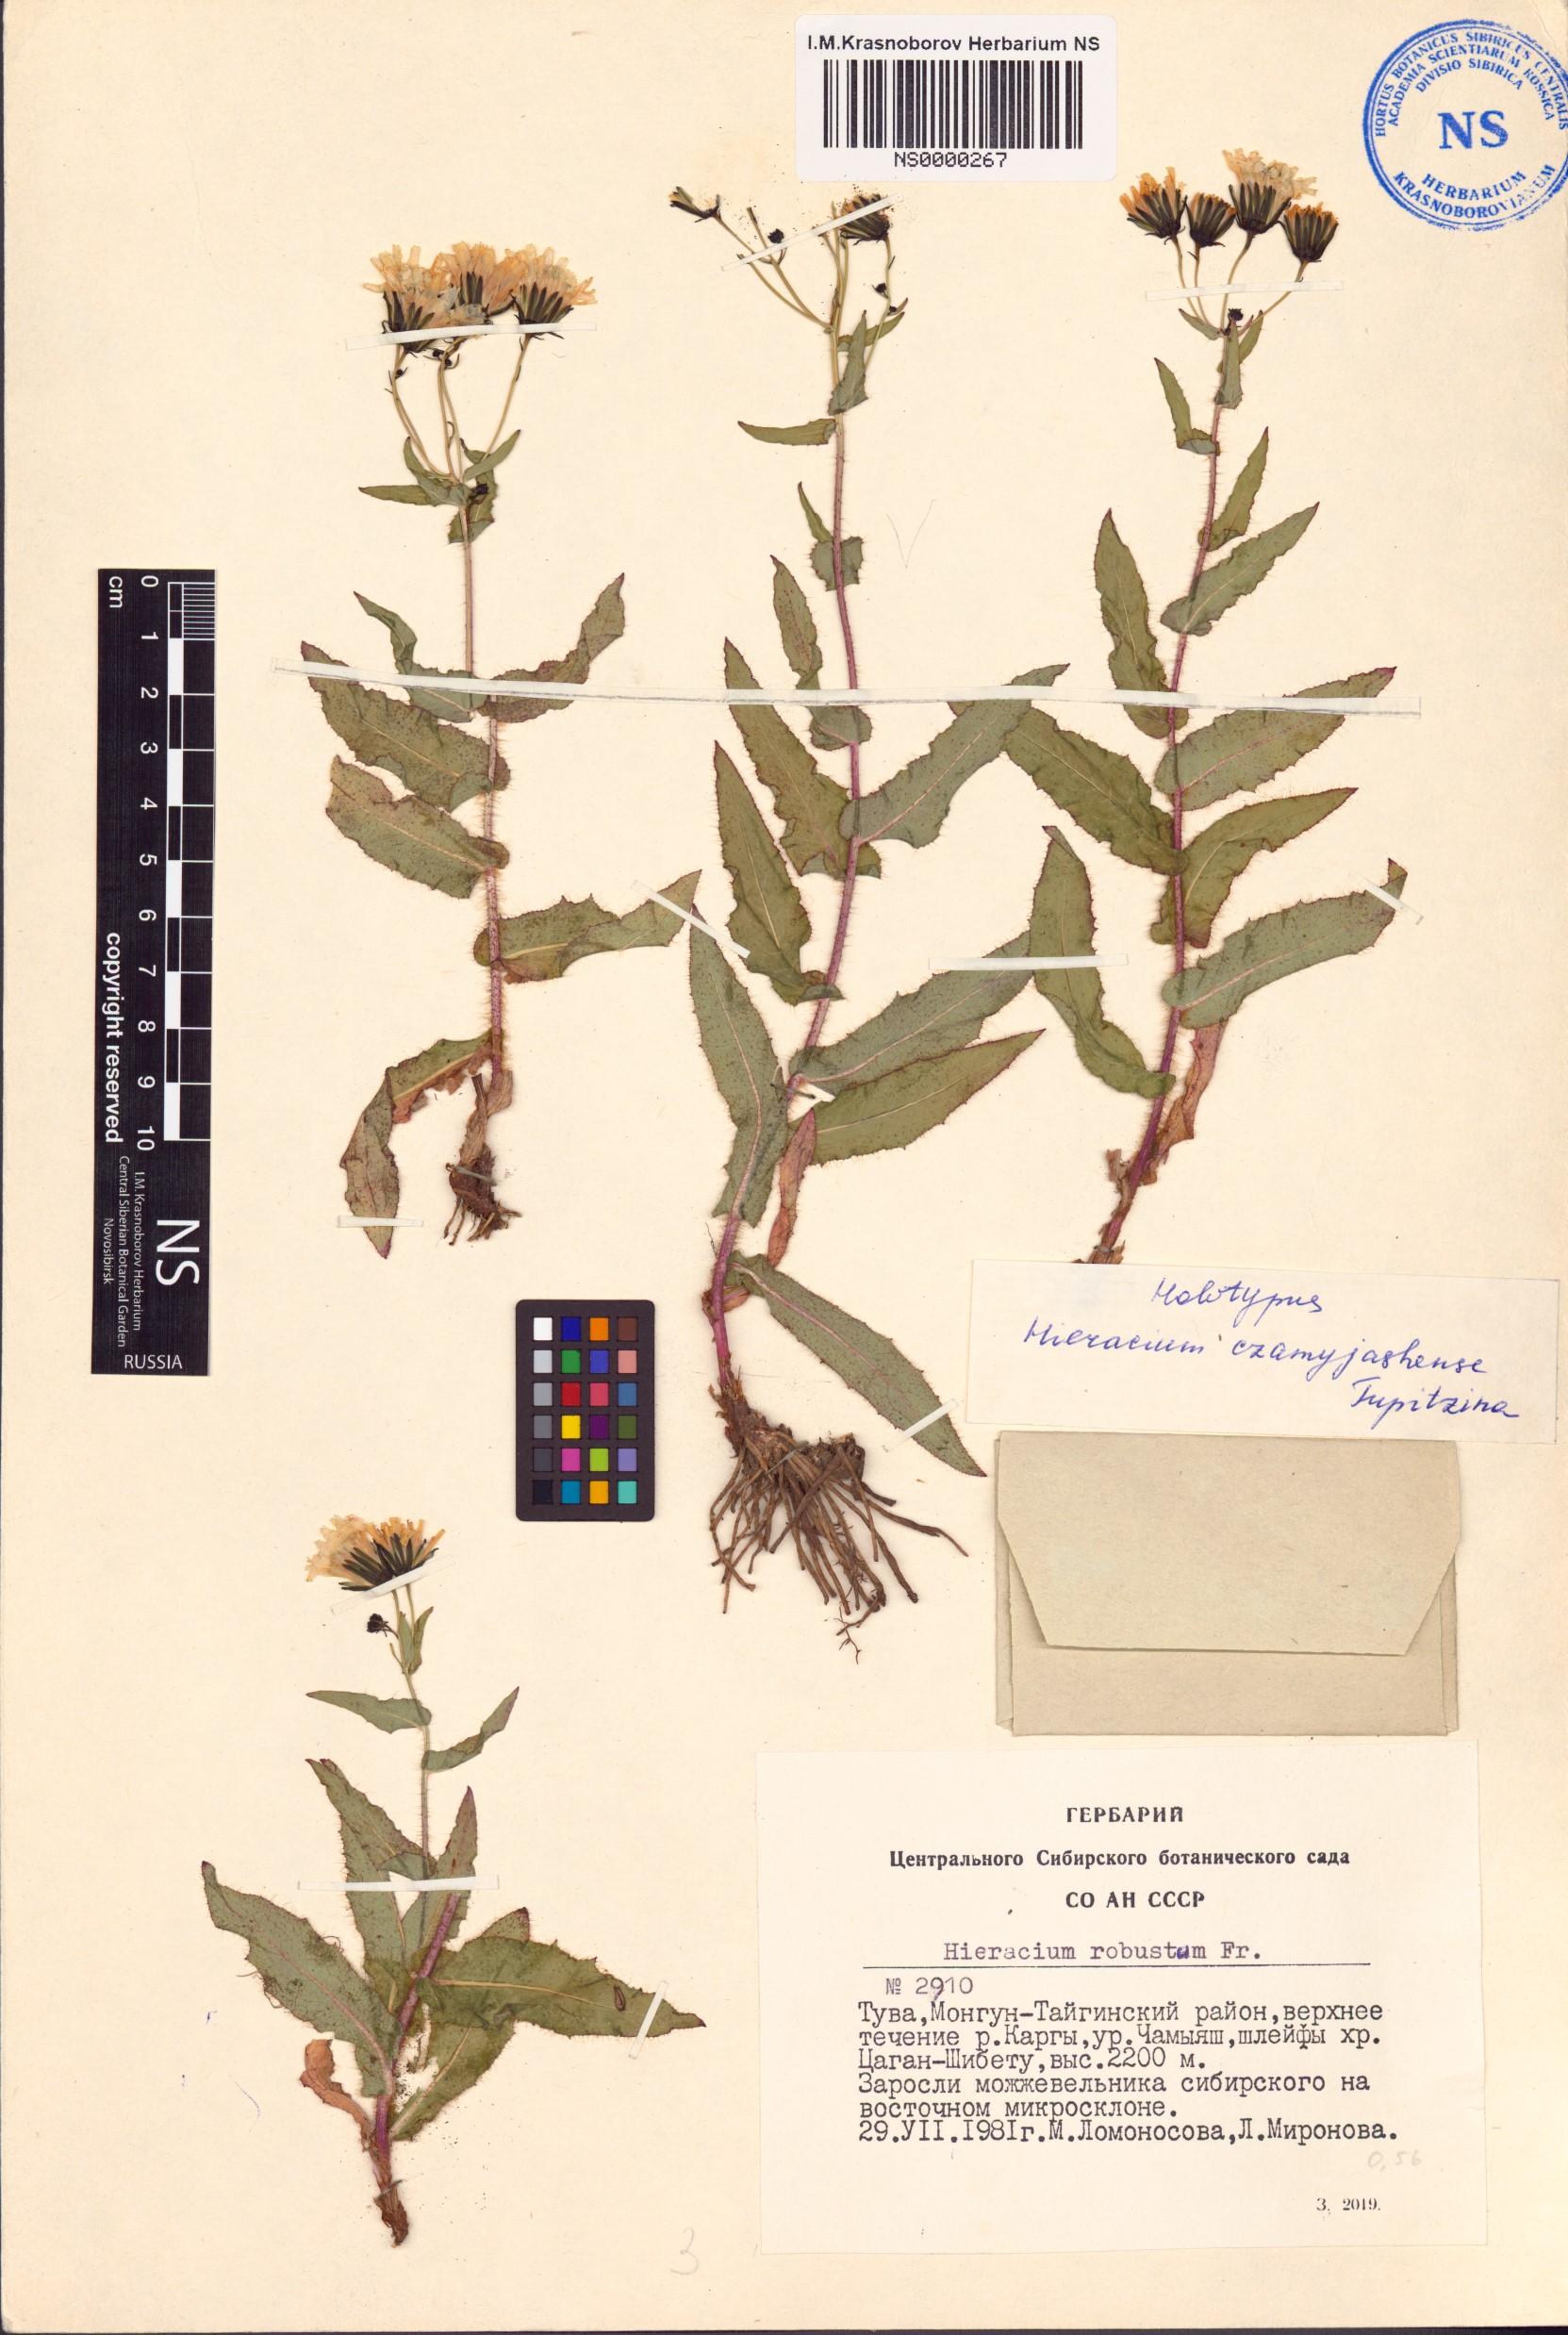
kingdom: Plantae
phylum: Tracheophyta
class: Magnoliopsida
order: Asterales
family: Asteraceae
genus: Hieracium
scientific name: Hieracium czamyjashense
